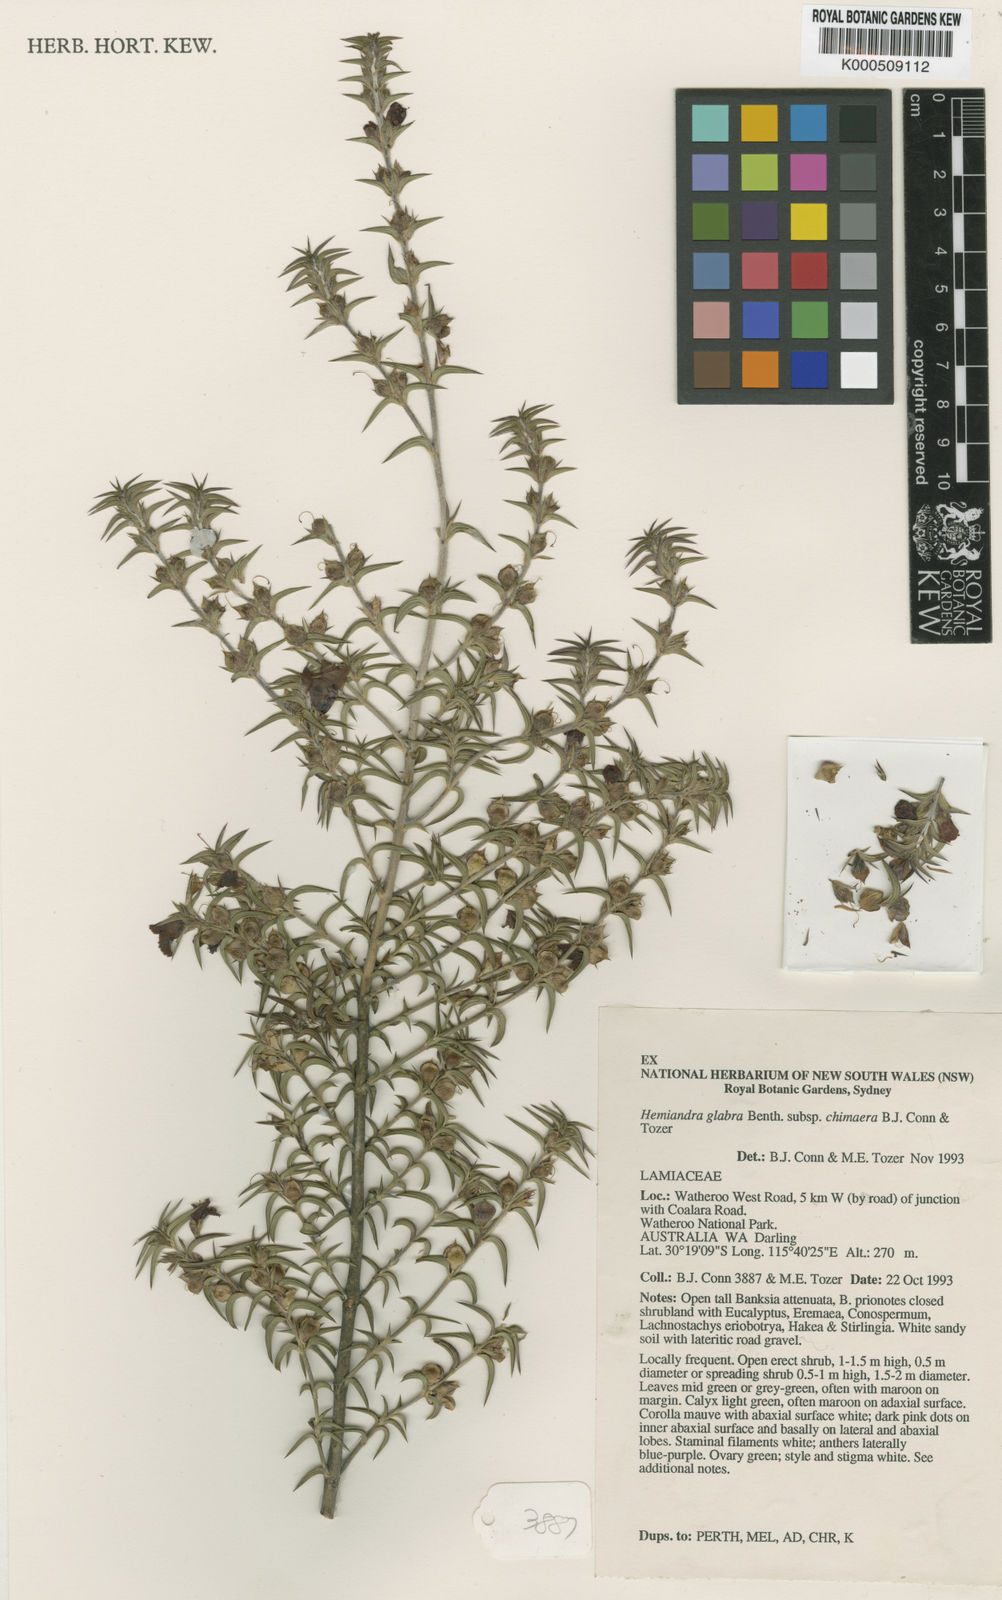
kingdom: Plantae
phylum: Tracheophyta
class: Magnoliopsida
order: Lamiales
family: Lamiaceae
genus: Hemiandra
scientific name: Hemiandra pungens
